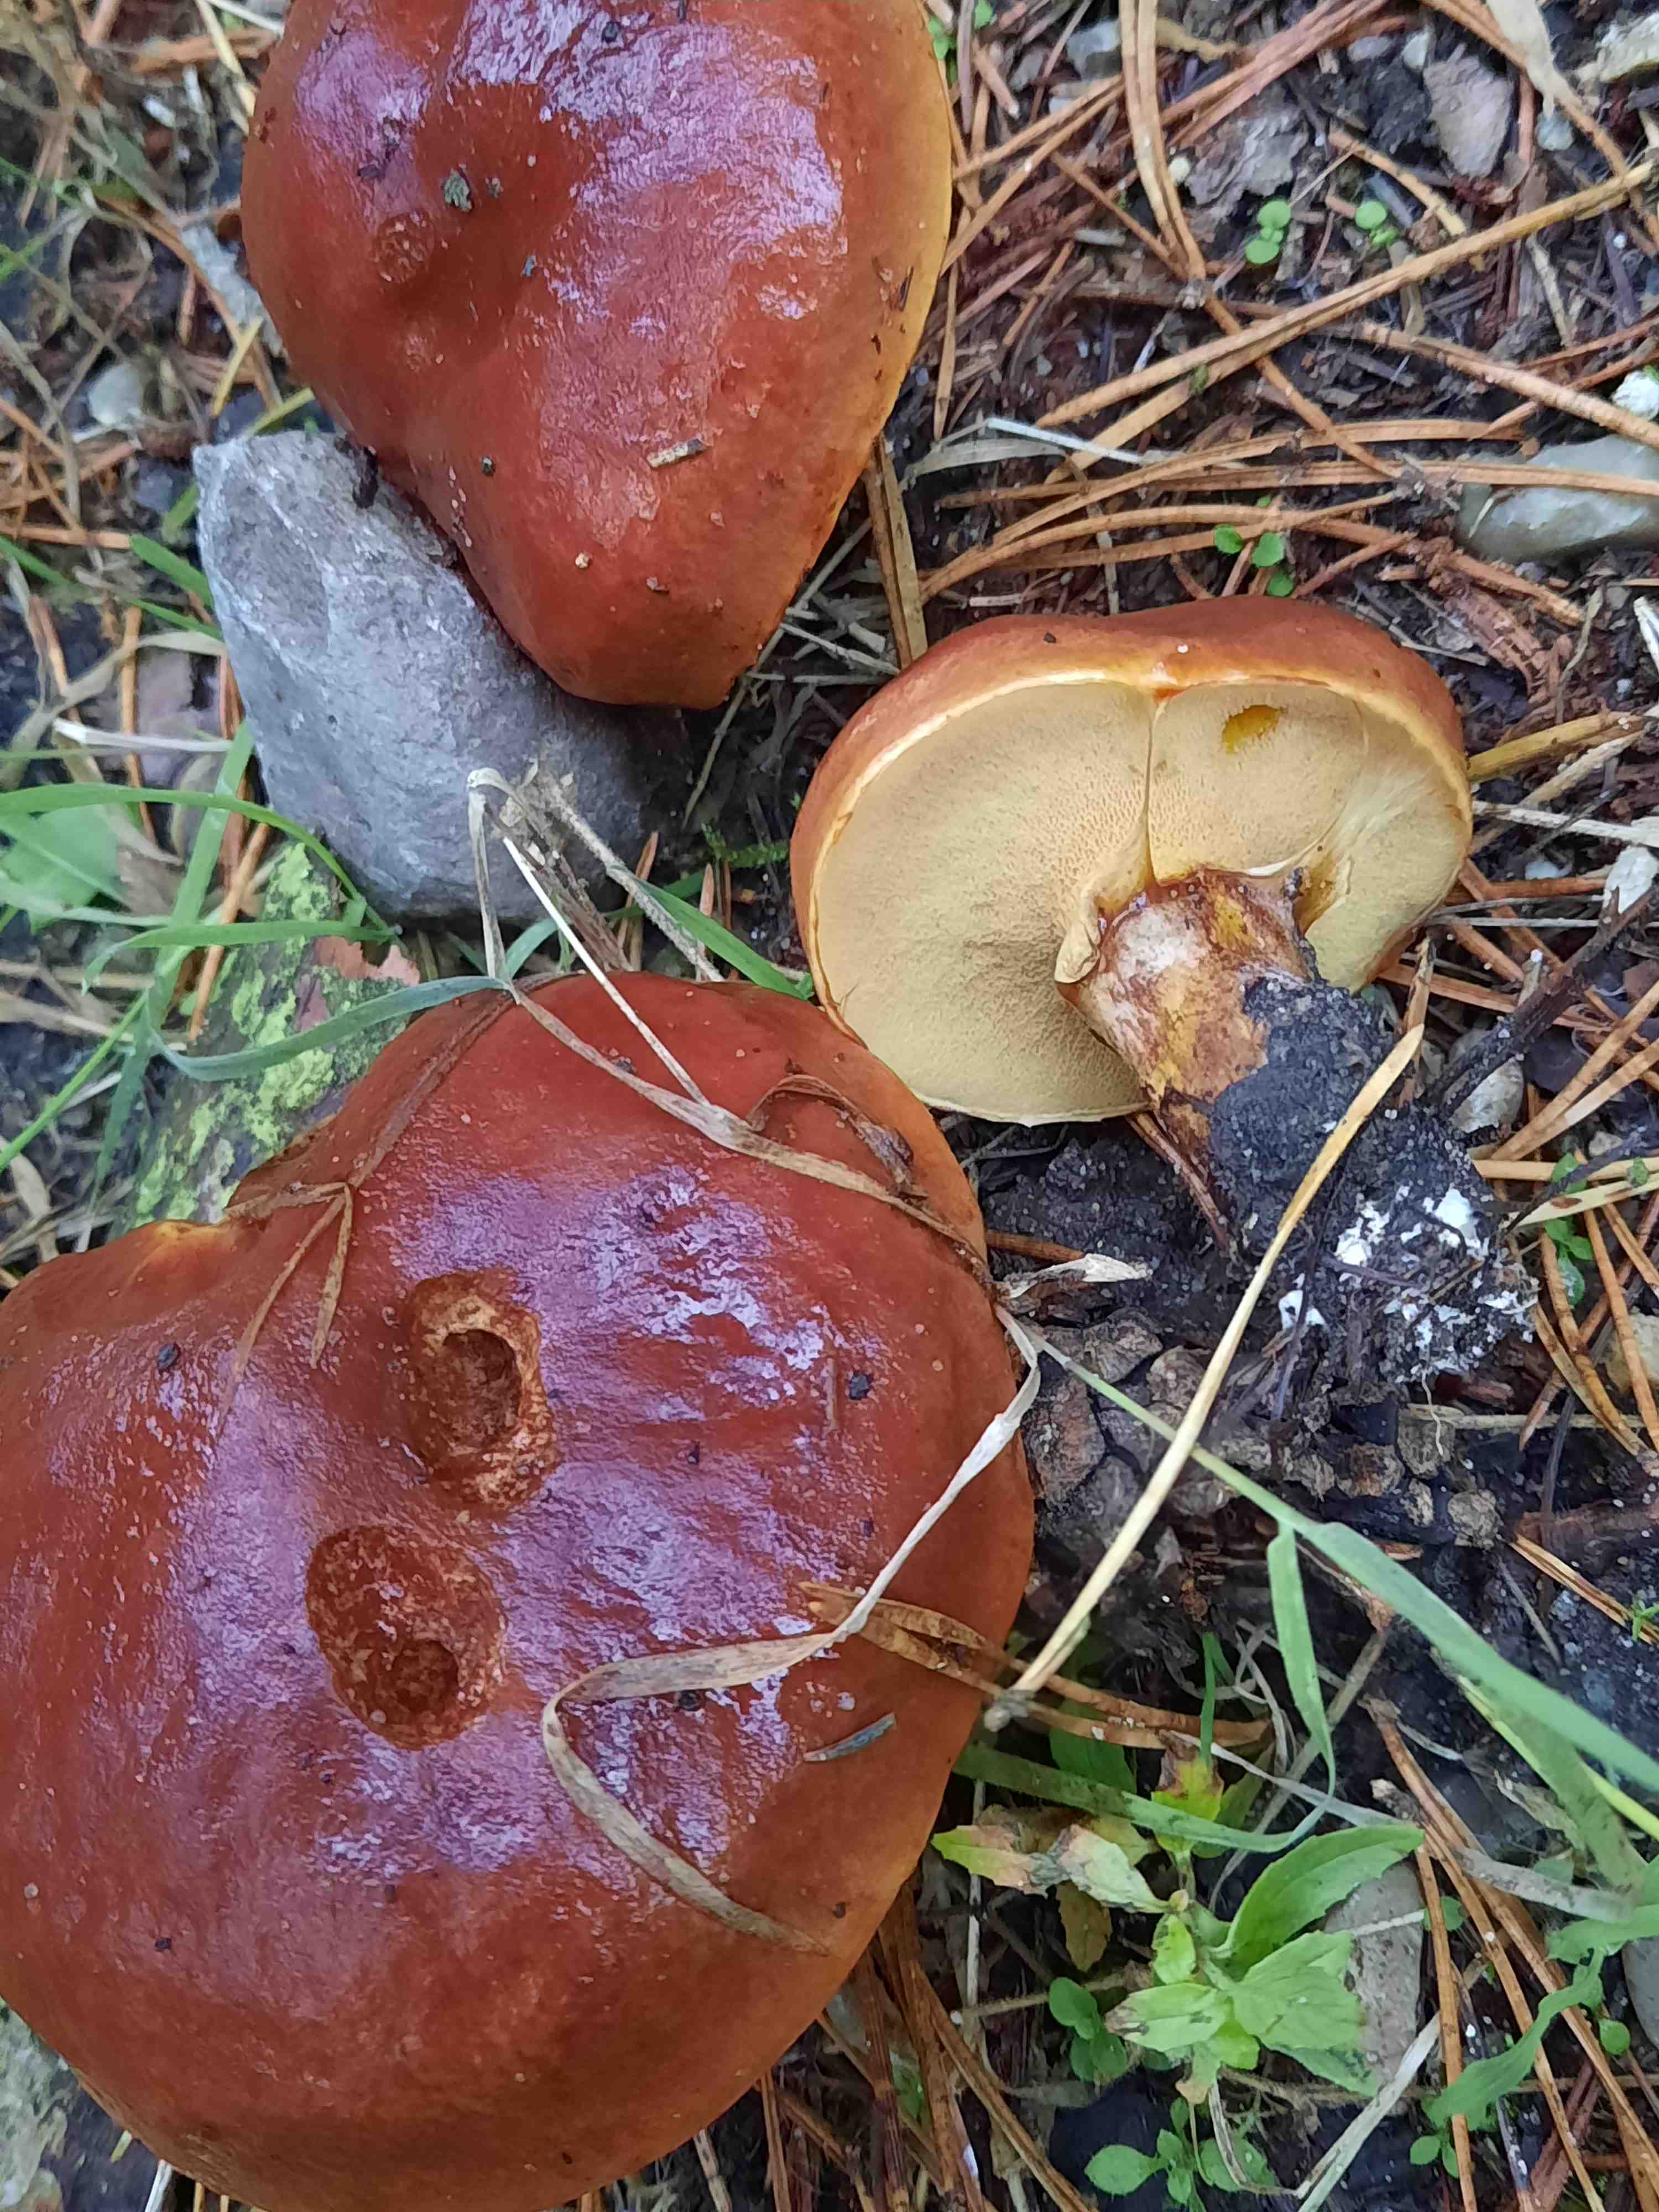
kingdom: Fungi
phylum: Basidiomycota
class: Agaricomycetes
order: Boletales
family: Suillaceae
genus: Suillus
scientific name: Suillus grevillei
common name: Larch bolete
